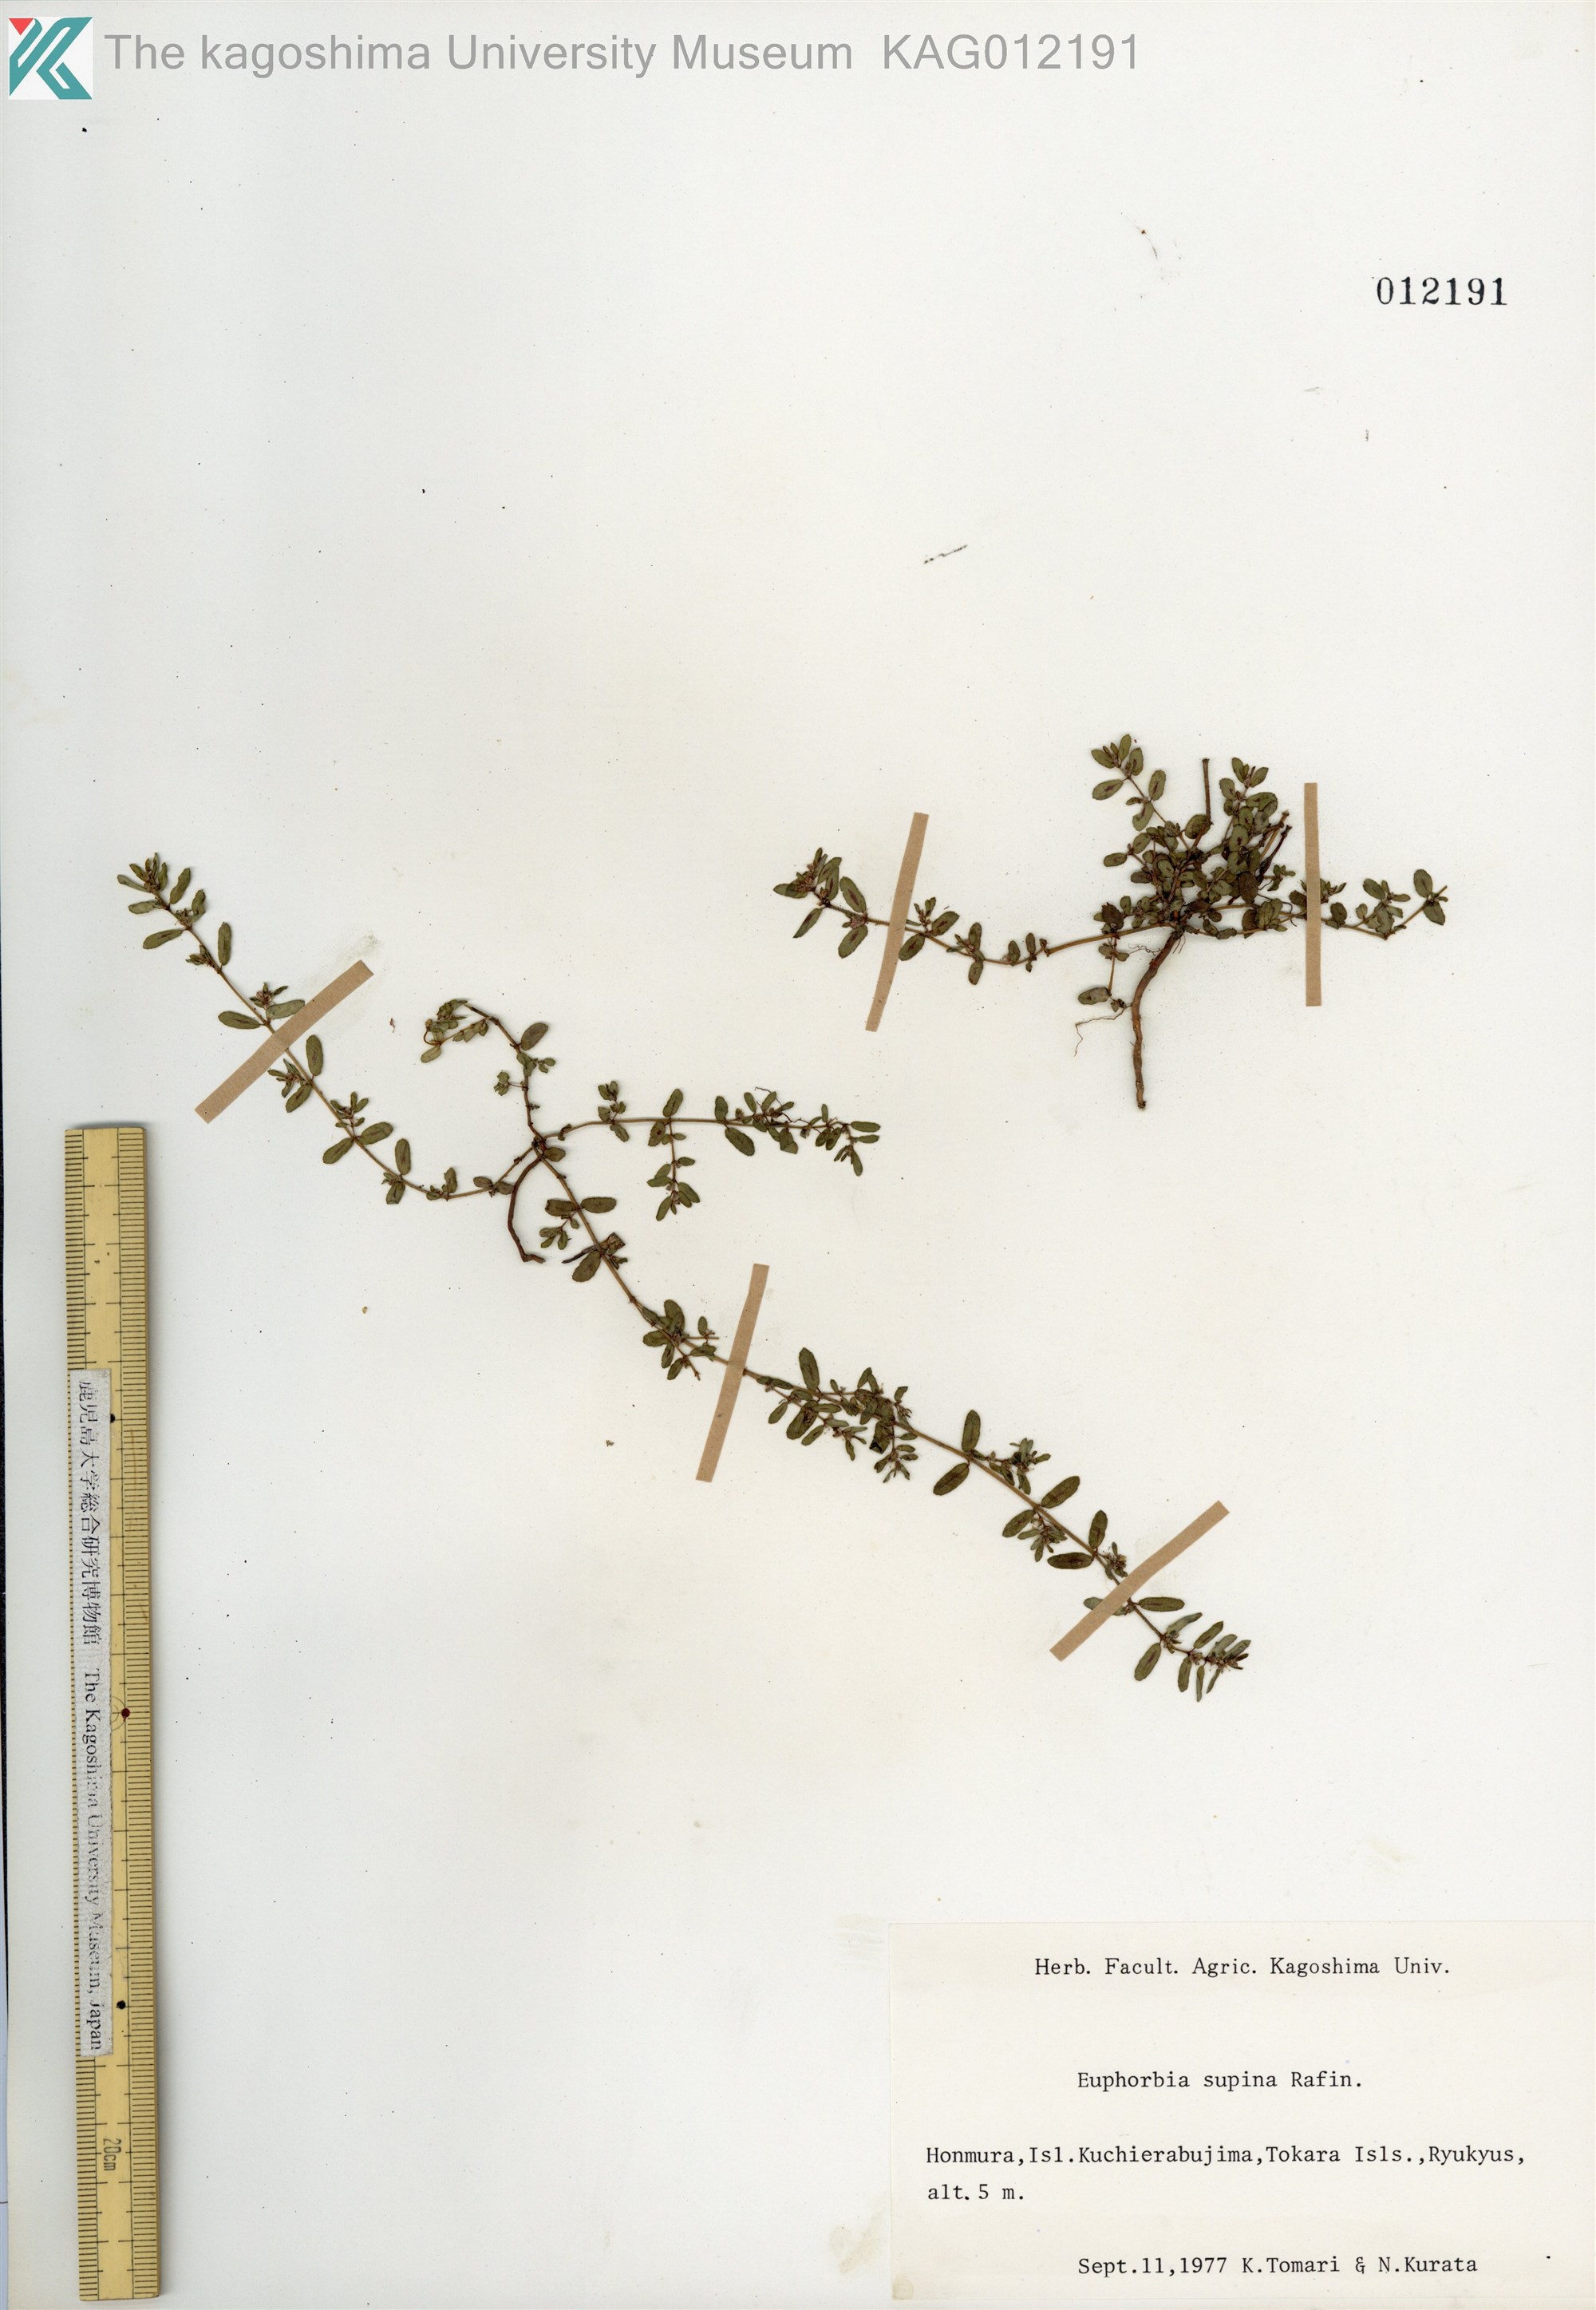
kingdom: Plantae
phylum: Tracheophyta
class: Magnoliopsida
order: Malpighiales
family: Euphorbiaceae
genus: Euphorbia
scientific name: Euphorbia maculata
